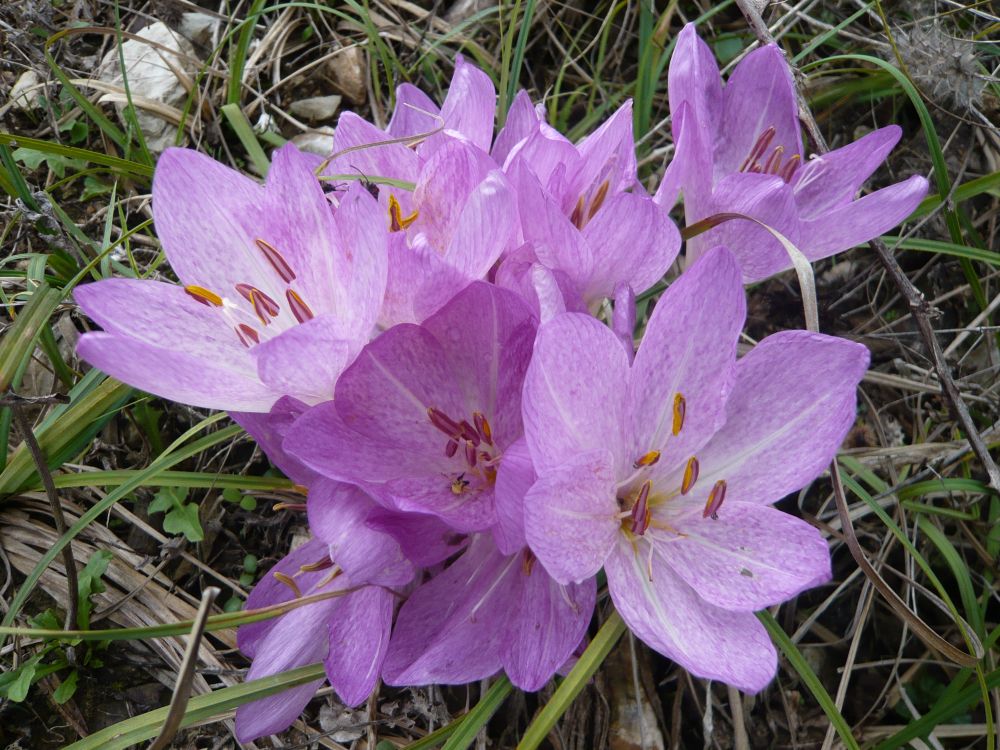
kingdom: Plantae
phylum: Tracheophyta
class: Liliopsida
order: Liliales
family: Colchicaceae
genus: Colchicum
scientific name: Colchicum autumnale
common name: Autumn crocus
